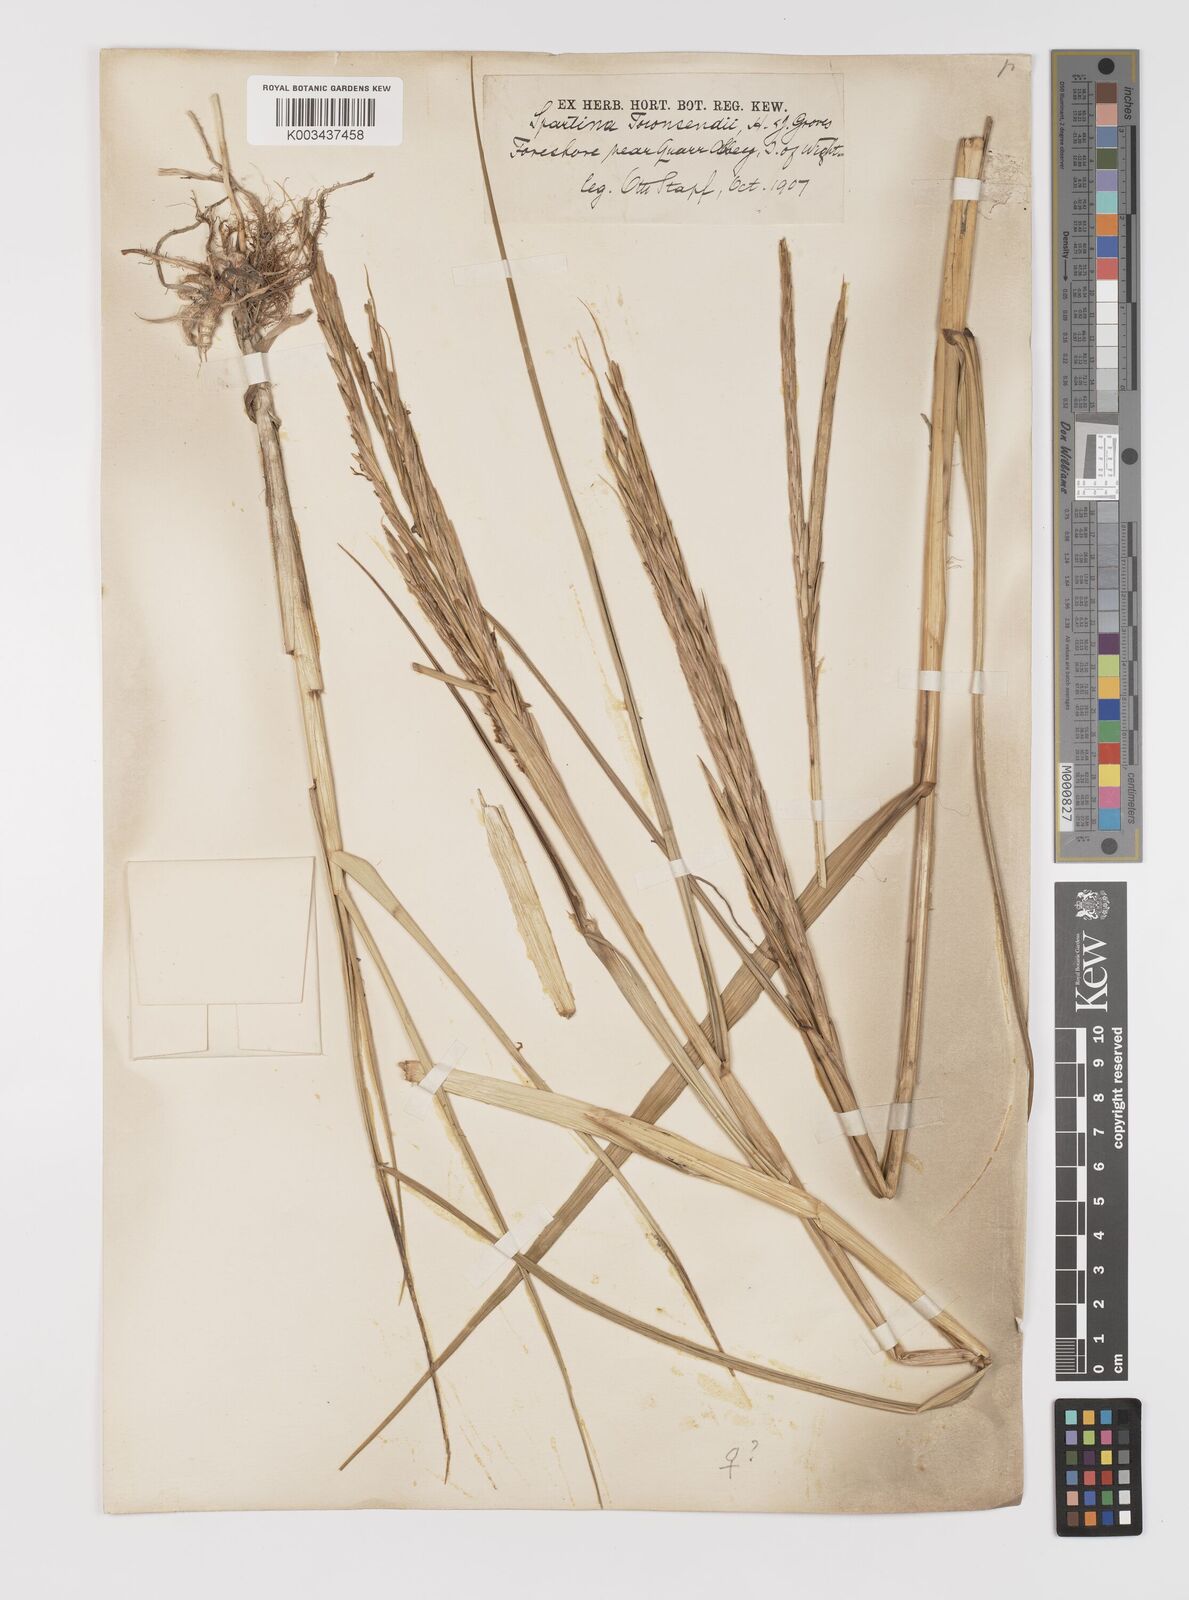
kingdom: Plantae
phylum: Tracheophyta
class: Liliopsida
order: Poales
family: Poaceae
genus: Sporobolus
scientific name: Sporobolus anglicus
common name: English cordgrass
